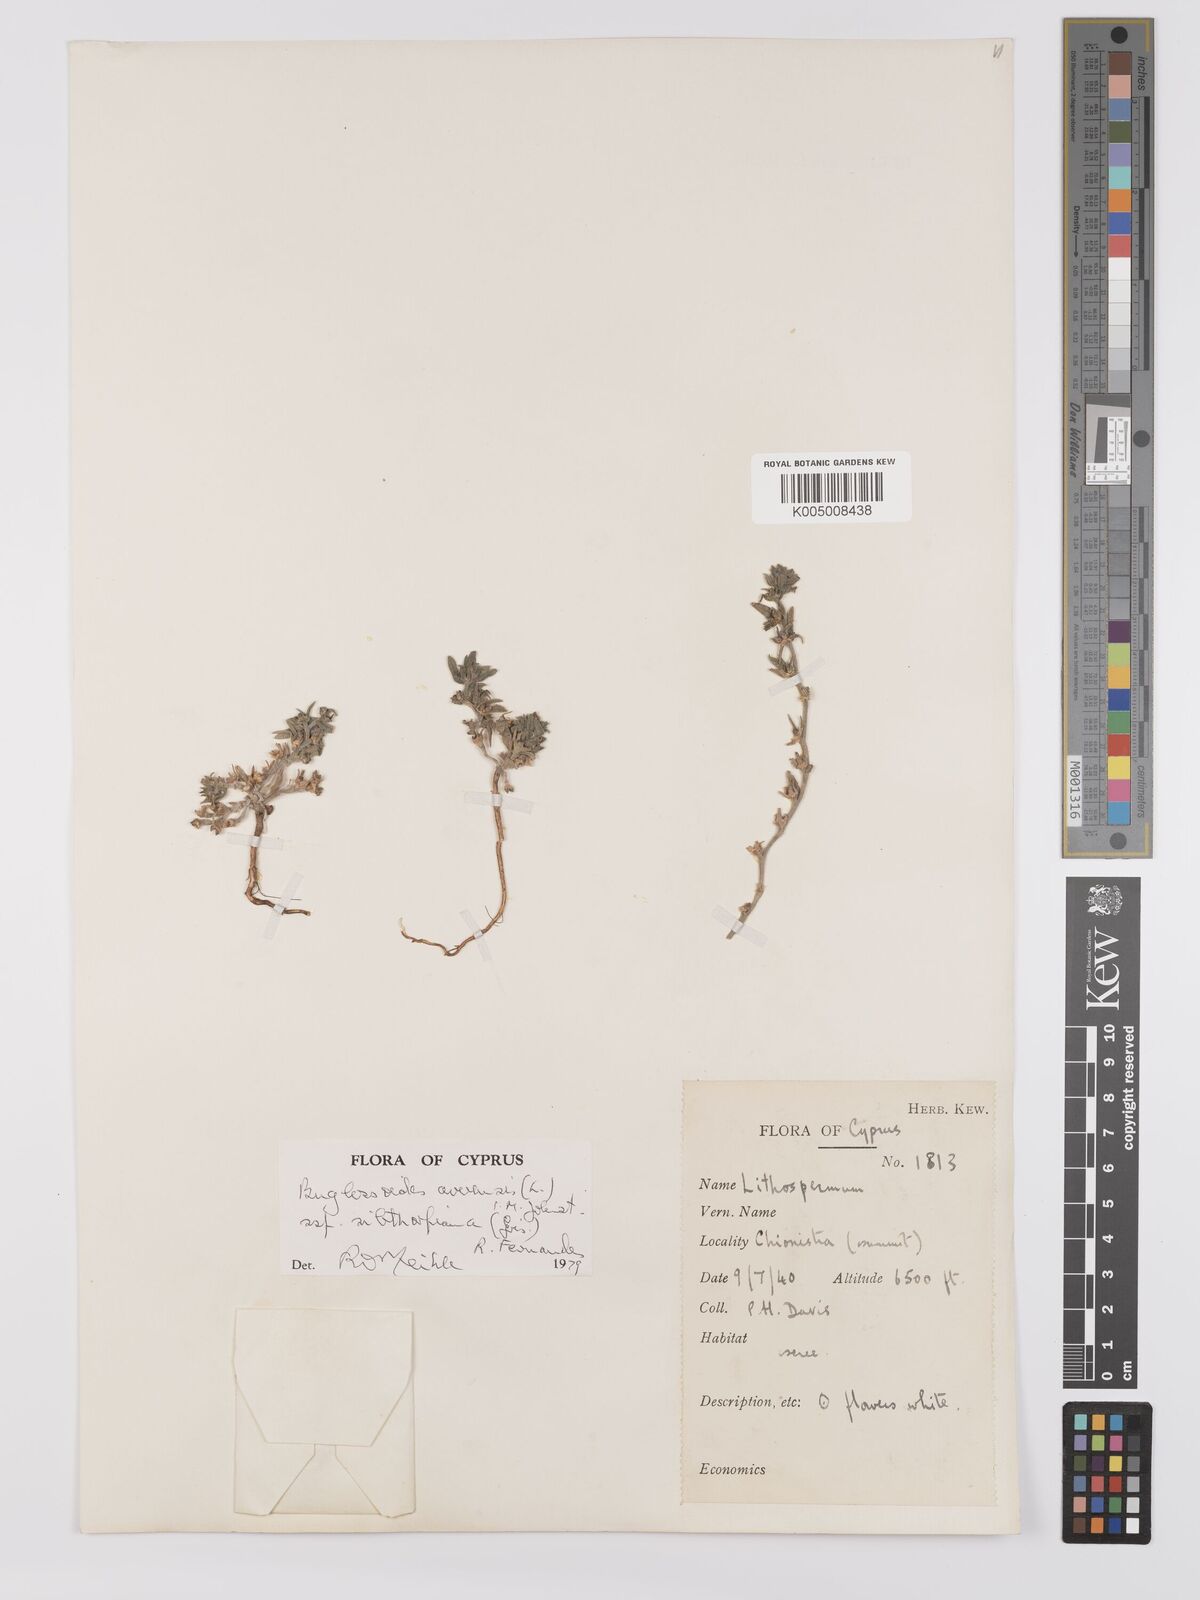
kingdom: Plantae
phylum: Tracheophyta
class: Magnoliopsida
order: Boraginales
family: Boraginaceae
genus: Buglossoides
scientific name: Buglossoides
